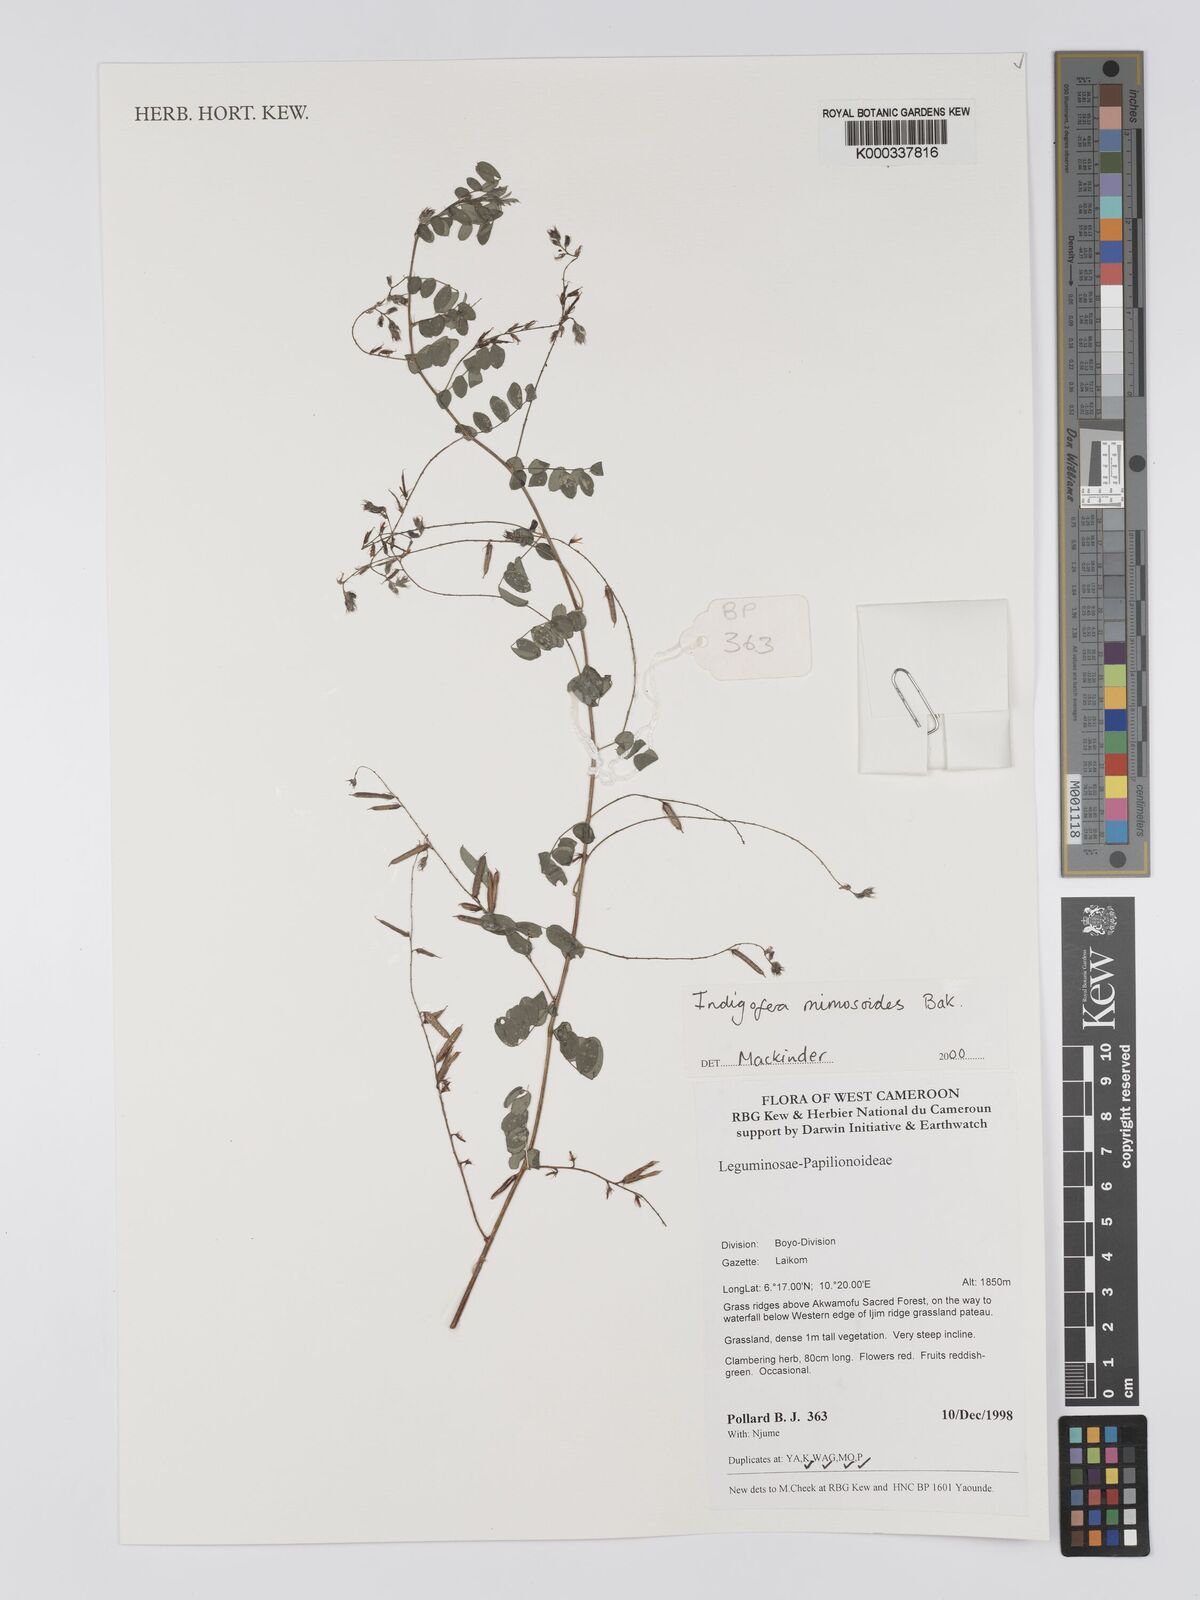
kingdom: Plantae
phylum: Tracheophyta
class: Magnoliopsida
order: Fabales
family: Fabaceae
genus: Indigofera
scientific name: Indigofera mimosoides
